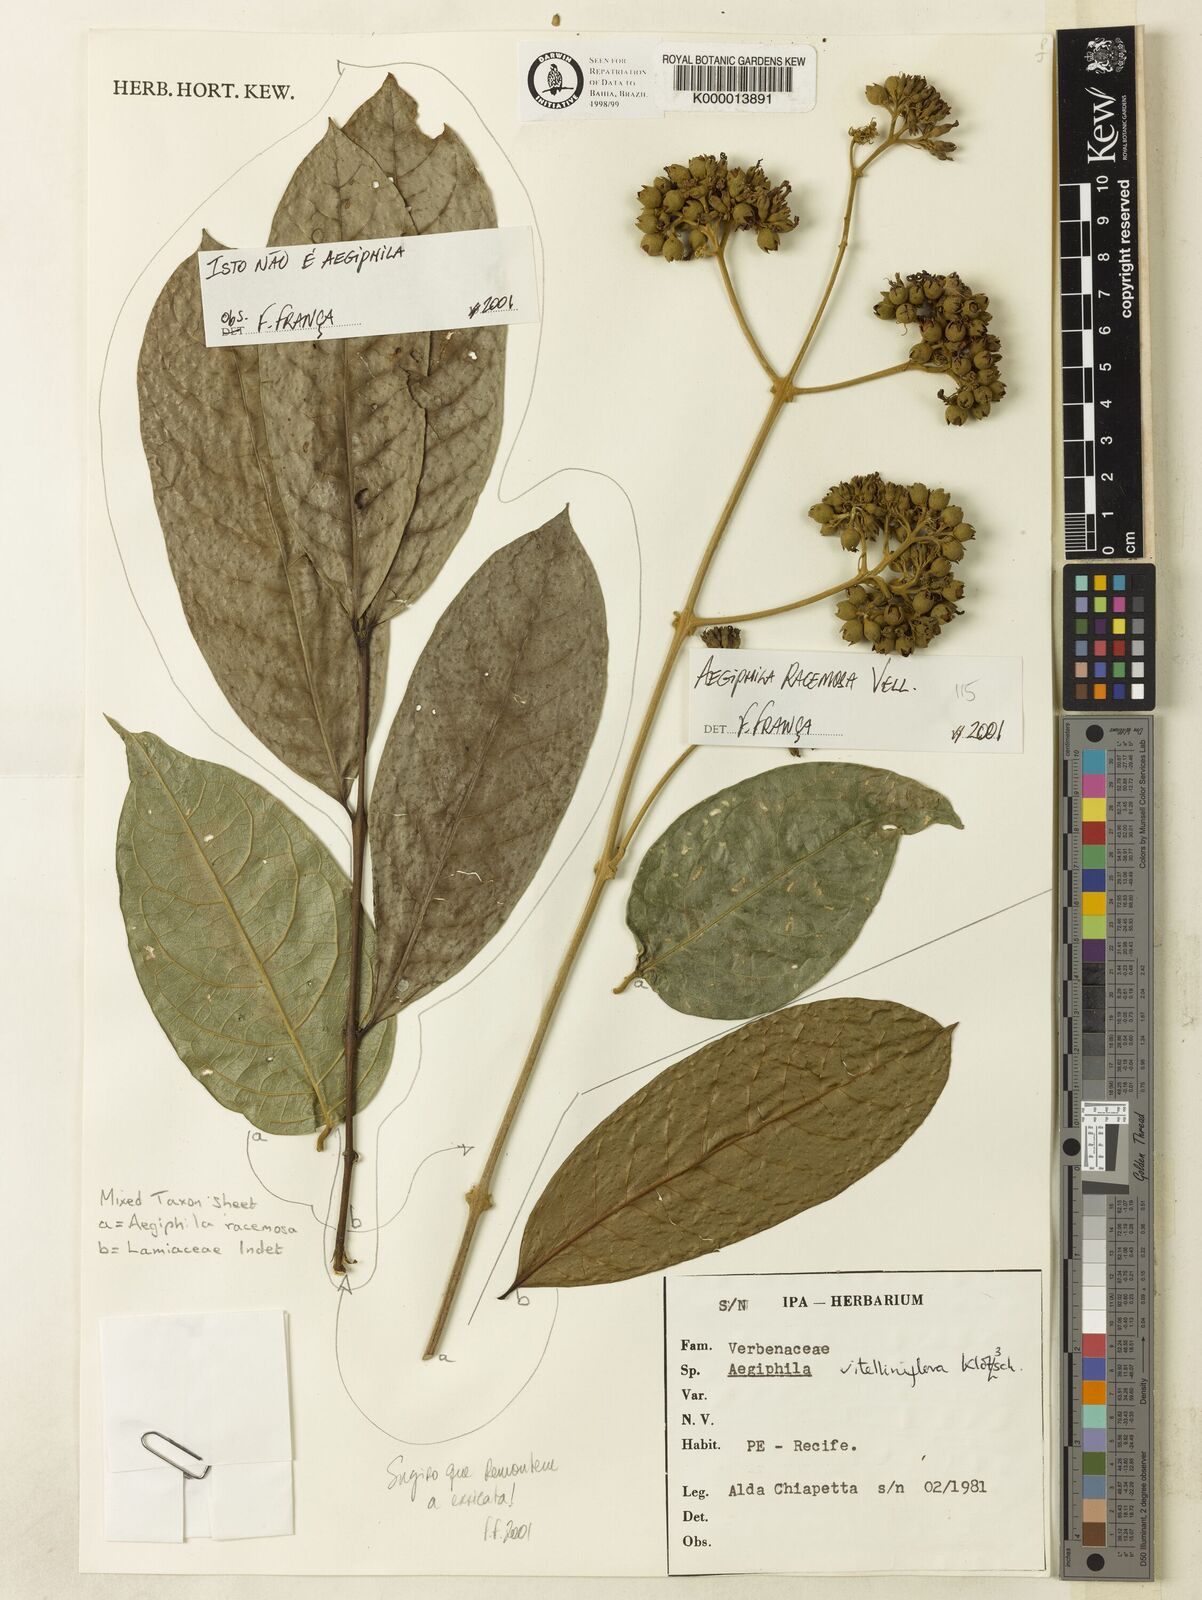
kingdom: Plantae
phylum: Tracheophyta
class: Magnoliopsida
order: Lamiales
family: Lamiaceae
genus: Aegiphila
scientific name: Aegiphila vitelliniflora
